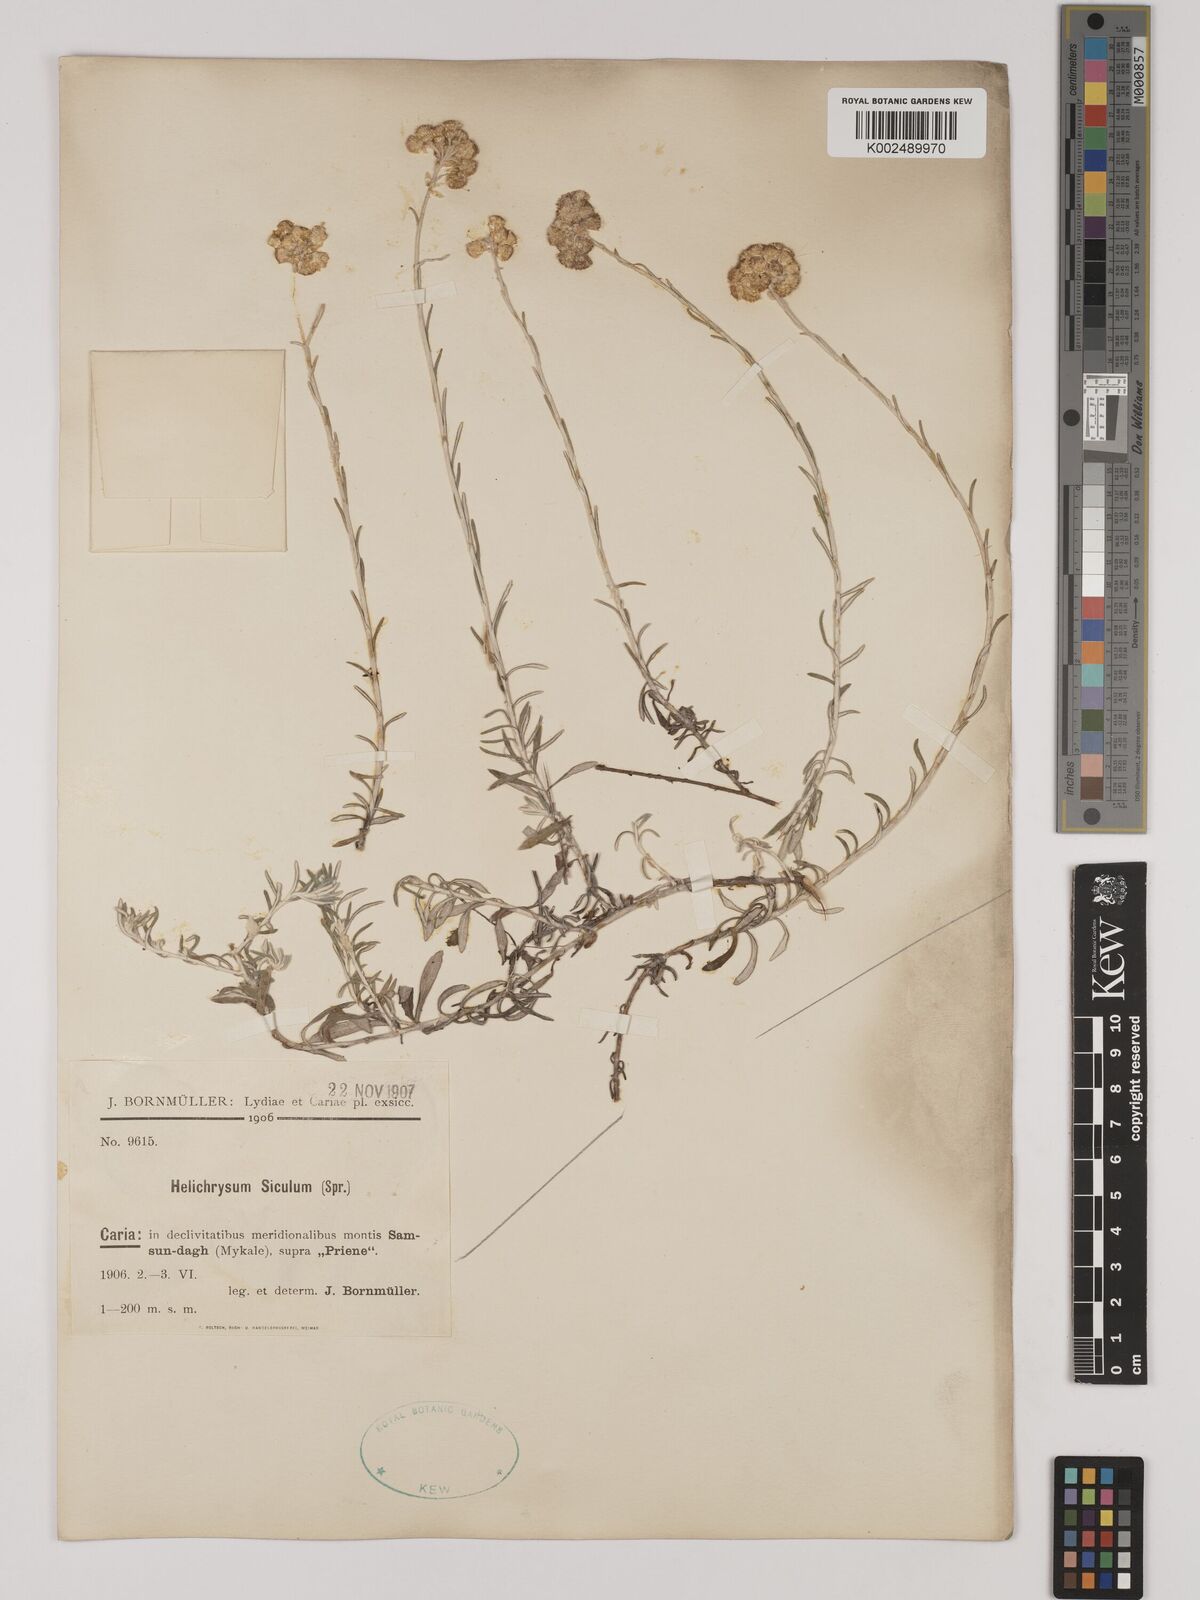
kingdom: Plantae
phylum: Tracheophyta
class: Magnoliopsida
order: Asterales
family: Asteraceae
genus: Helichrysum
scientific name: Helichrysum stoechas
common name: Goldilocks
